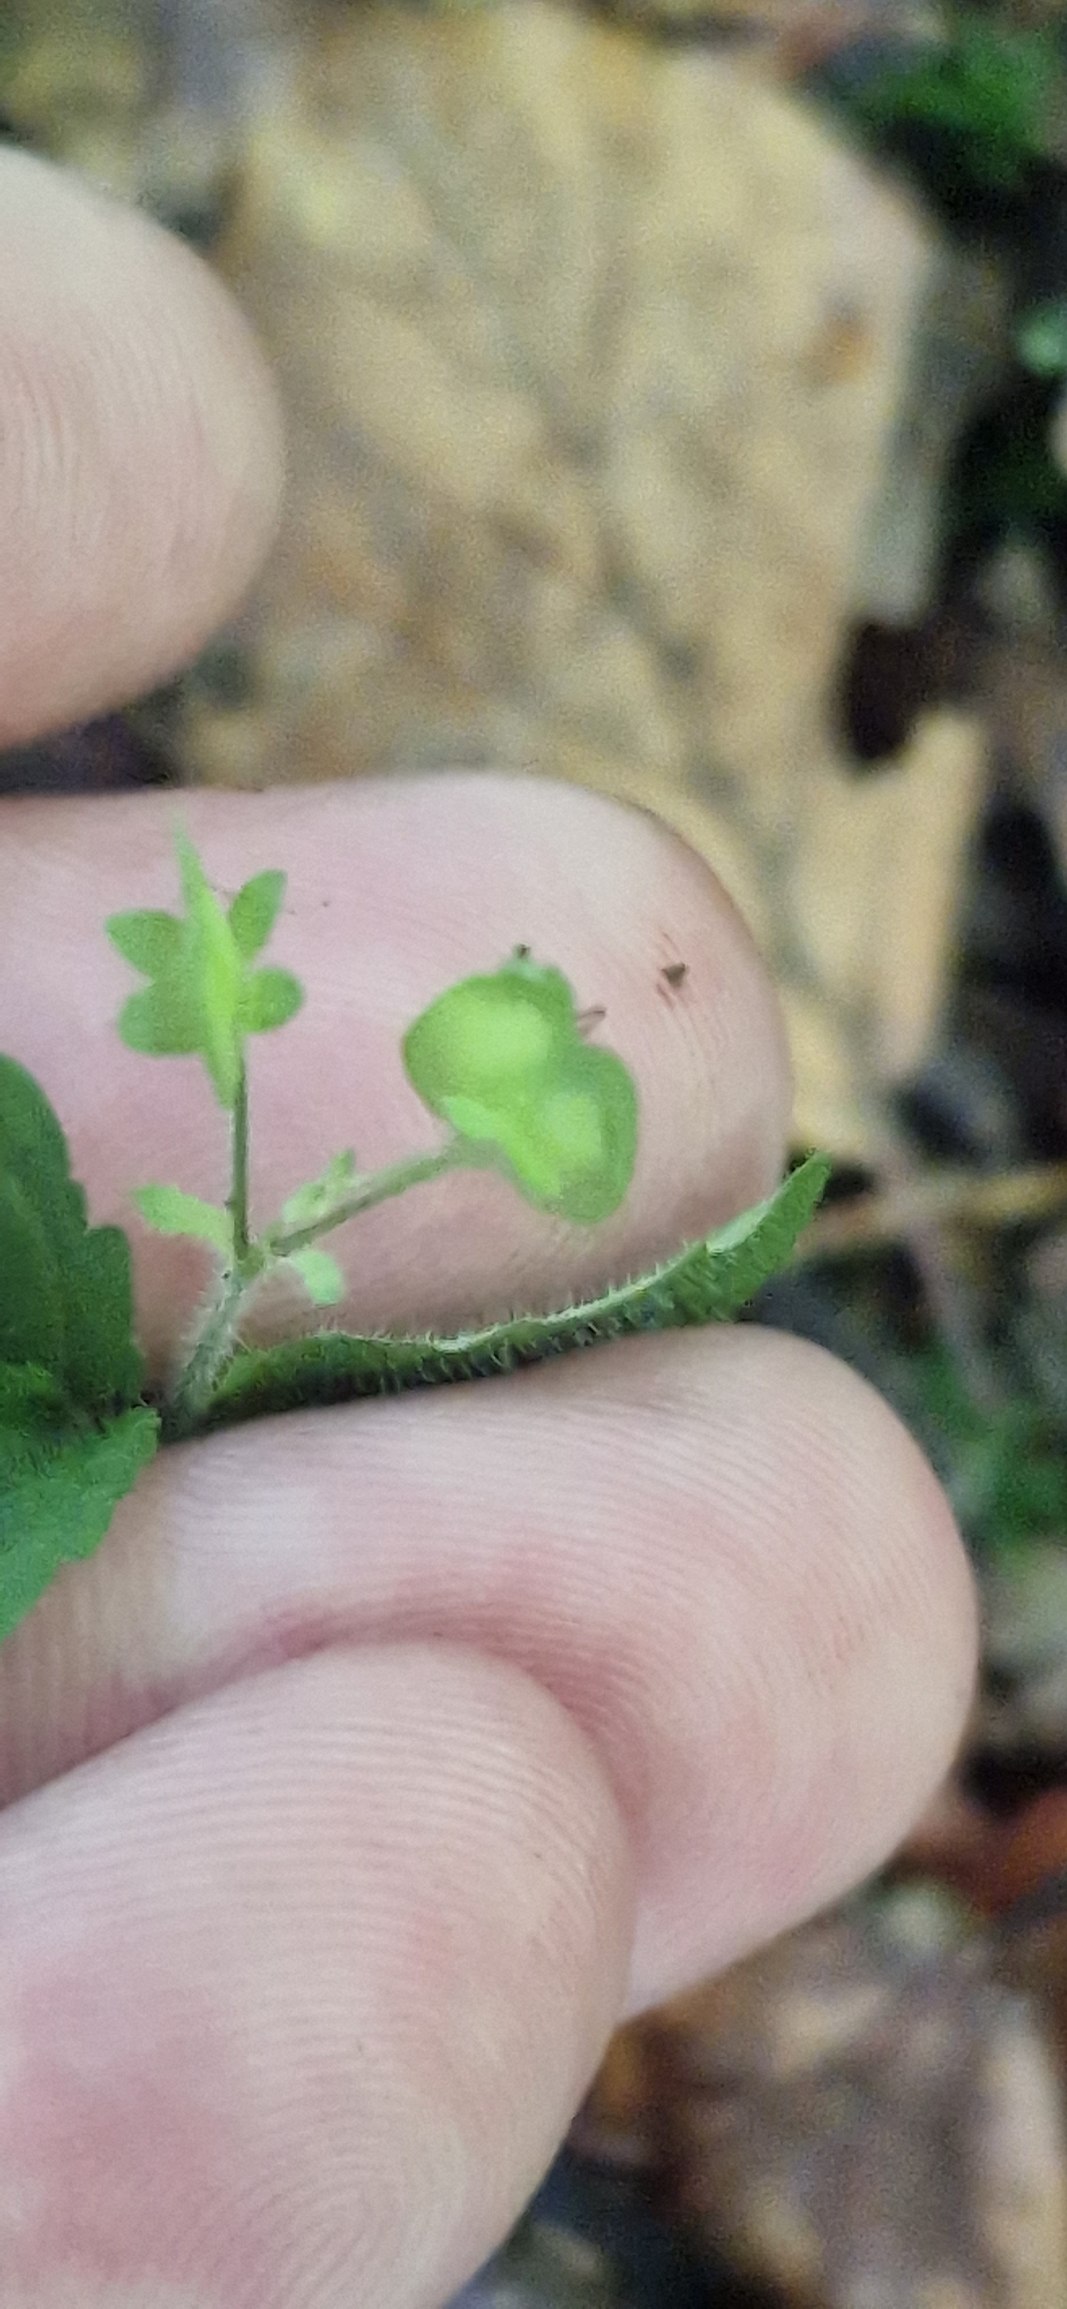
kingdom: Plantae
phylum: Tracheophyta
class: Magnoliopsida
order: Lamiales
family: Plantaginaceae
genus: Veronica
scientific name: Veronica montana
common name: Bjerg-ærenpris
